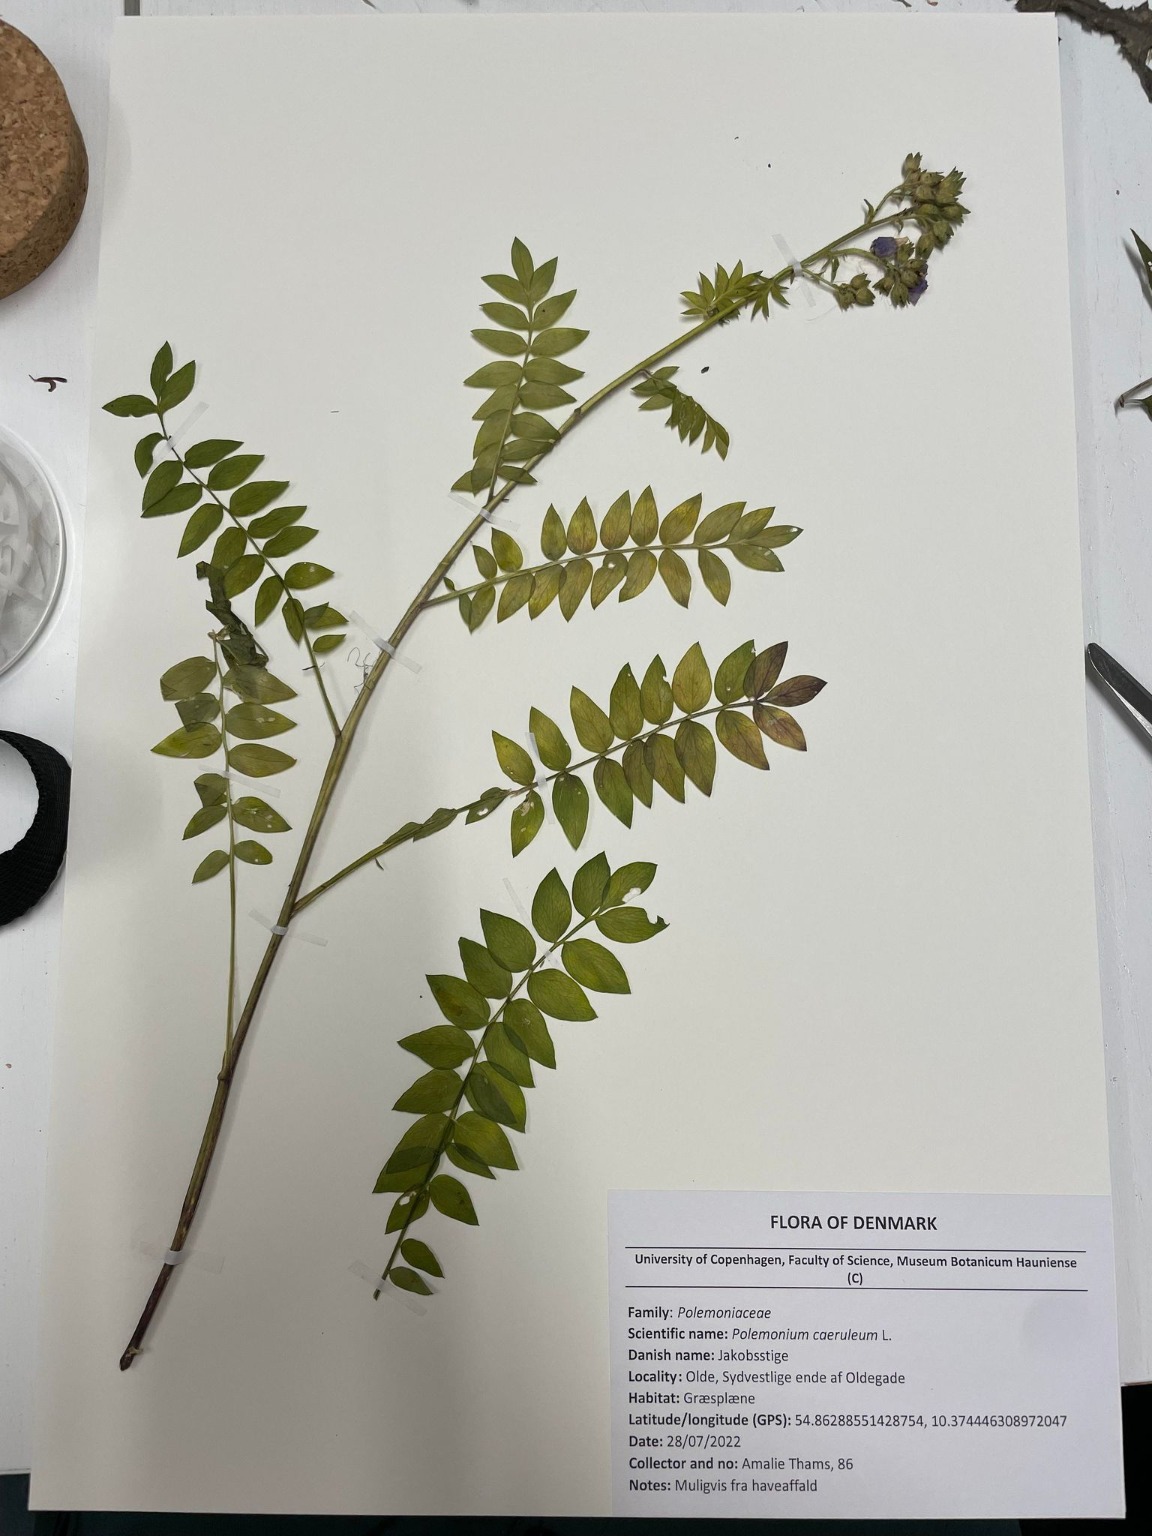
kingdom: Plantae
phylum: Tracheophyta
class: Magnoliopsida
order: Ericales
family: Polemoniaceae
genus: Polemonium
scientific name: Polemonium caeruleum
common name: Jakobsstige
